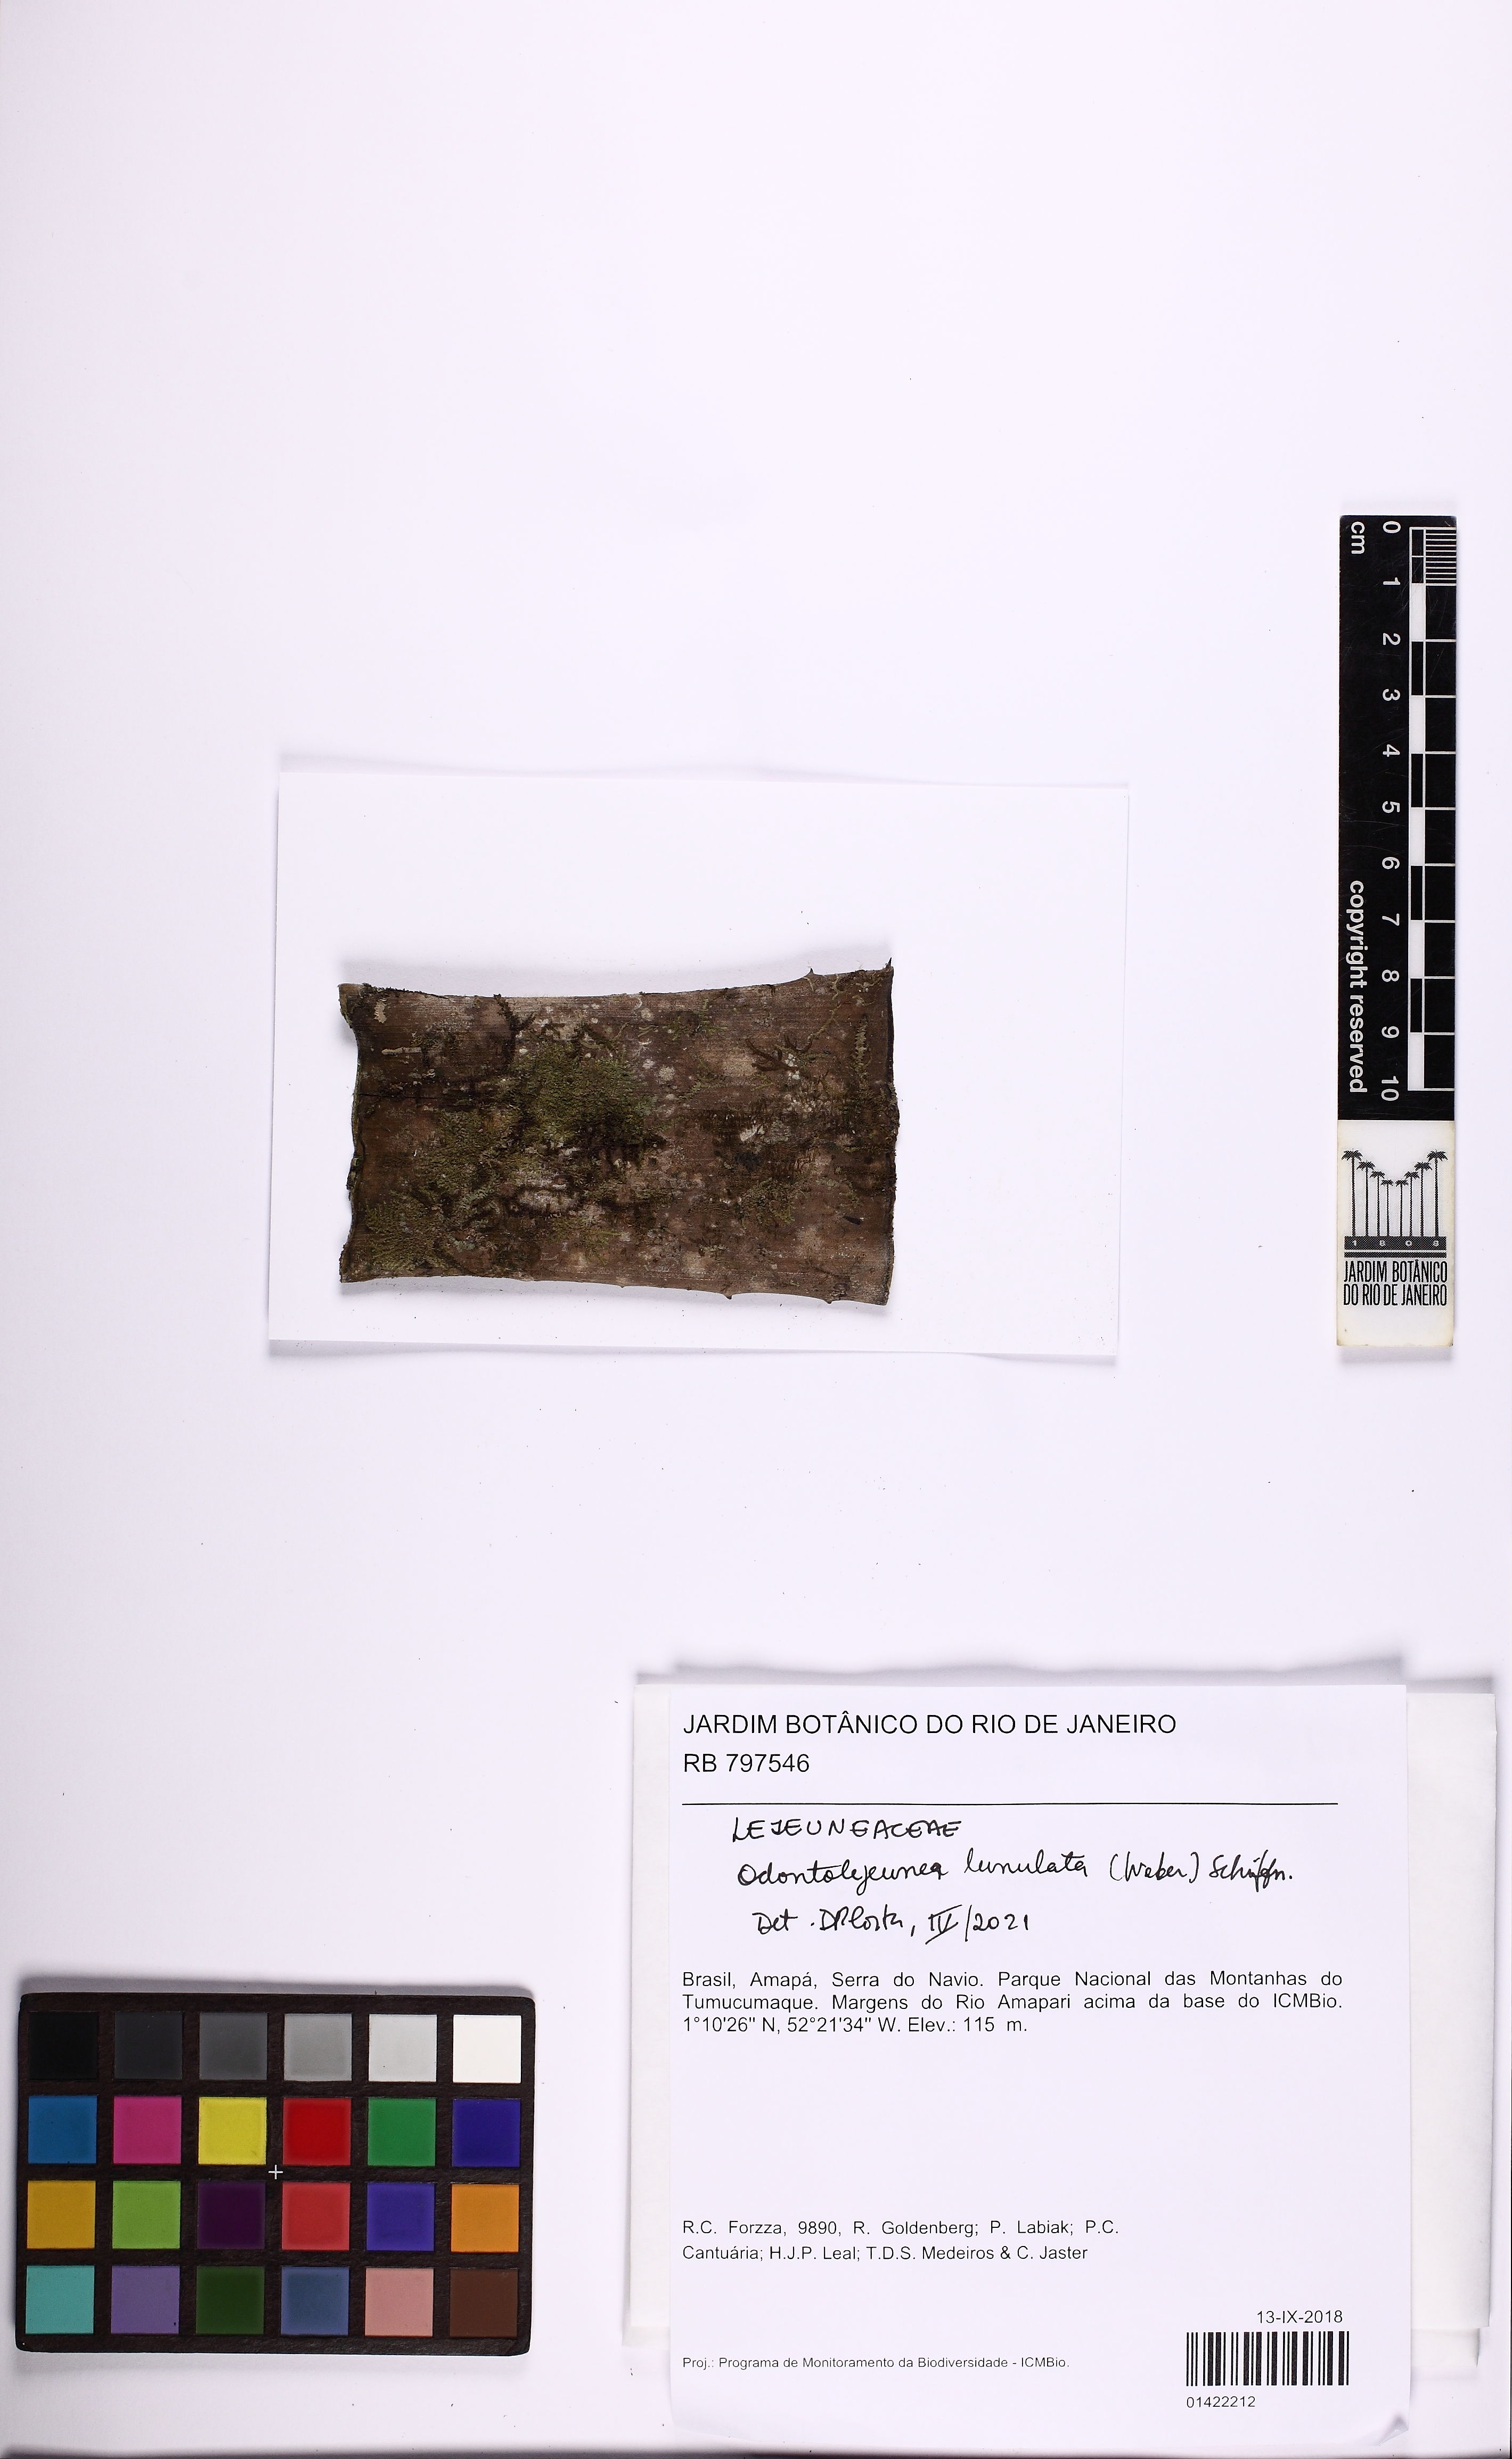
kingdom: Plantae
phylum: Marchantiophyta
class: Jungermanniopsida
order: Porellales
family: Lejeuneaceae
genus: Odontolejeunea
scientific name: Odontolejeunea lunulata
